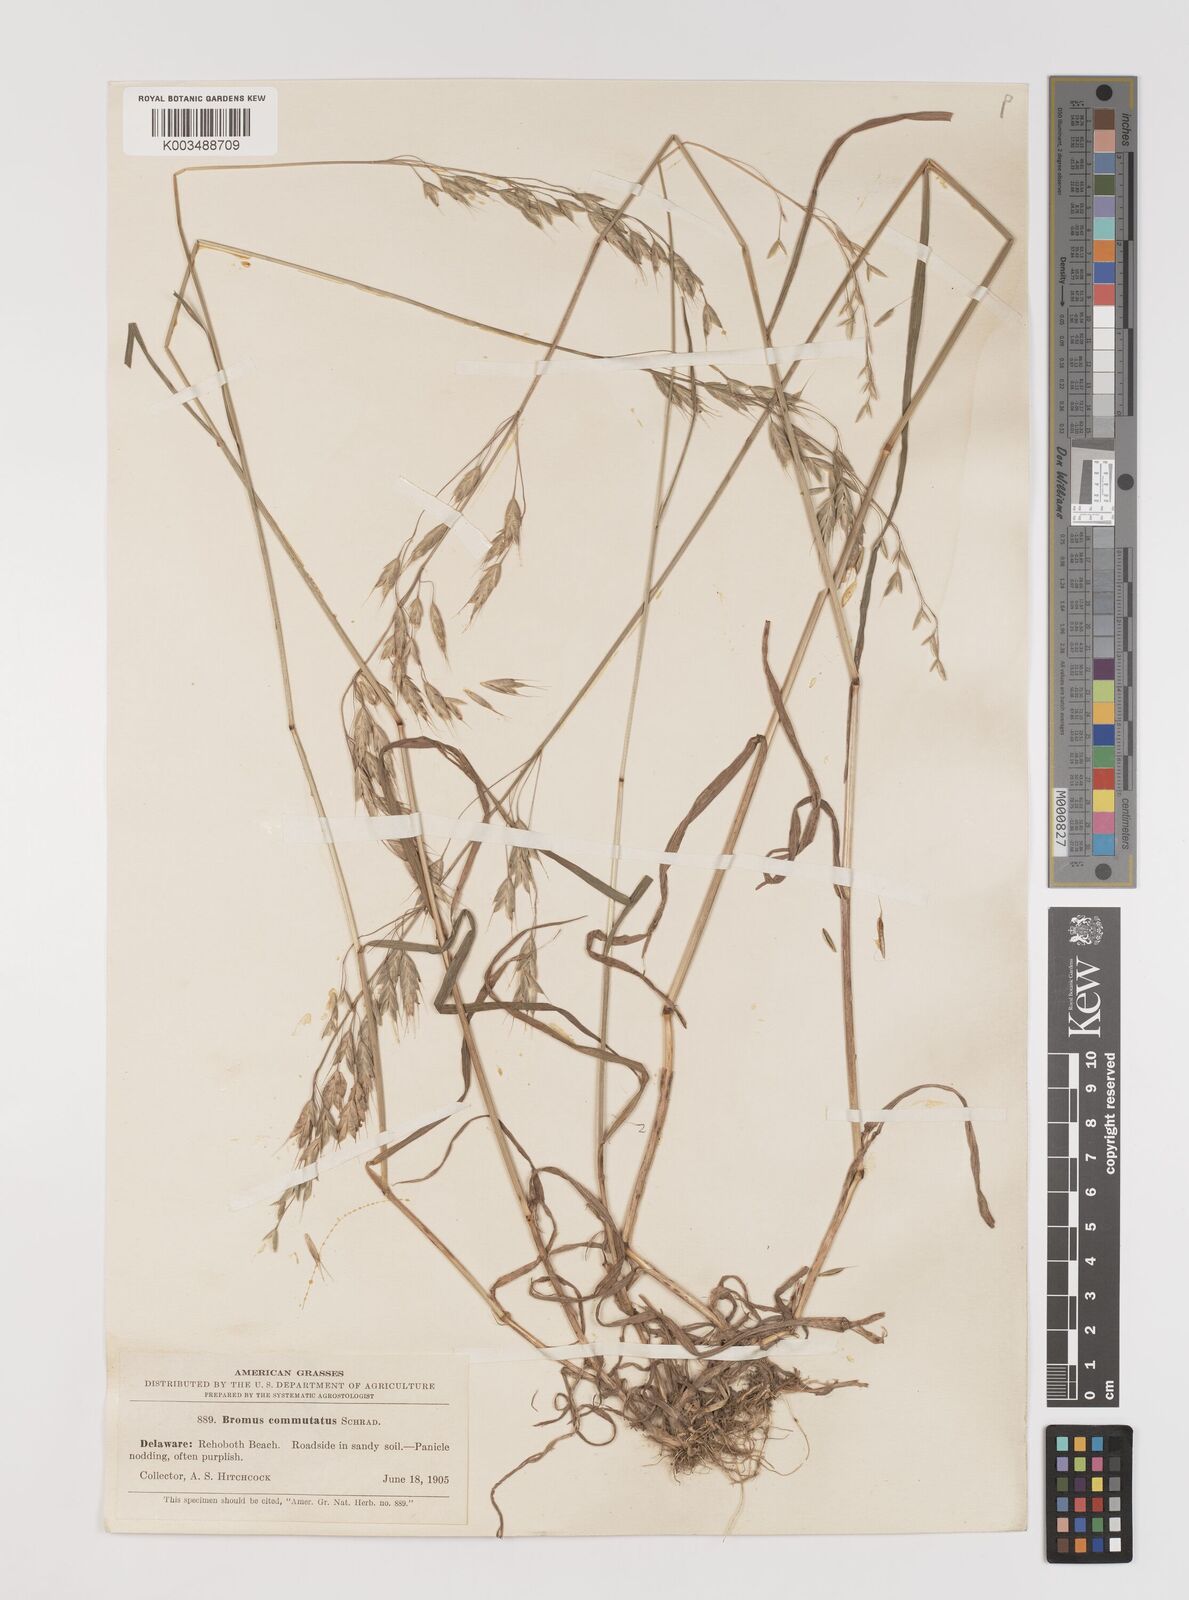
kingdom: Plantae
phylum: Tracheophyta
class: Liliopsida
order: Poales
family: Poaceae
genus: Bromus
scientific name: Bromus racemosus
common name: Bald brome
